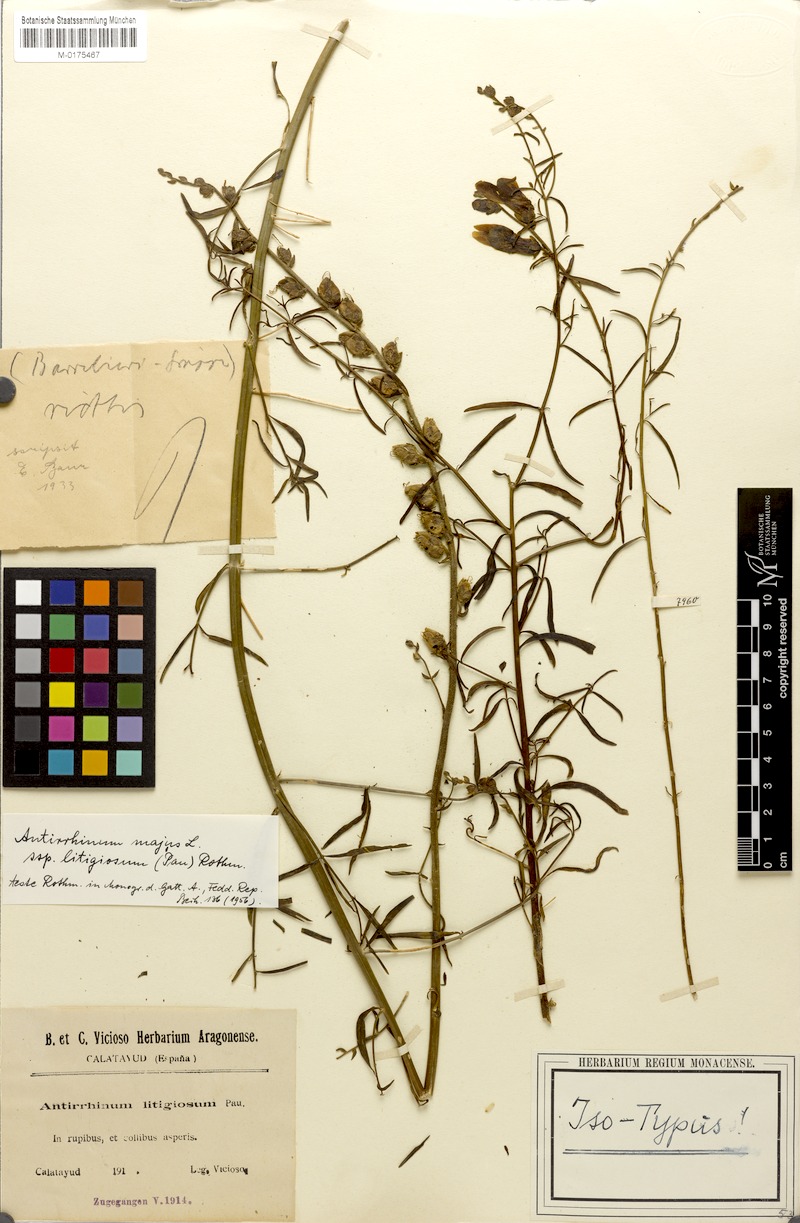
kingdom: Plantae
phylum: Tracheophyta
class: Magnoliopsida
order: Lamiales
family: Plantaginaceae
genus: Antirrhinum
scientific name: Antirrhinum litigiosum
